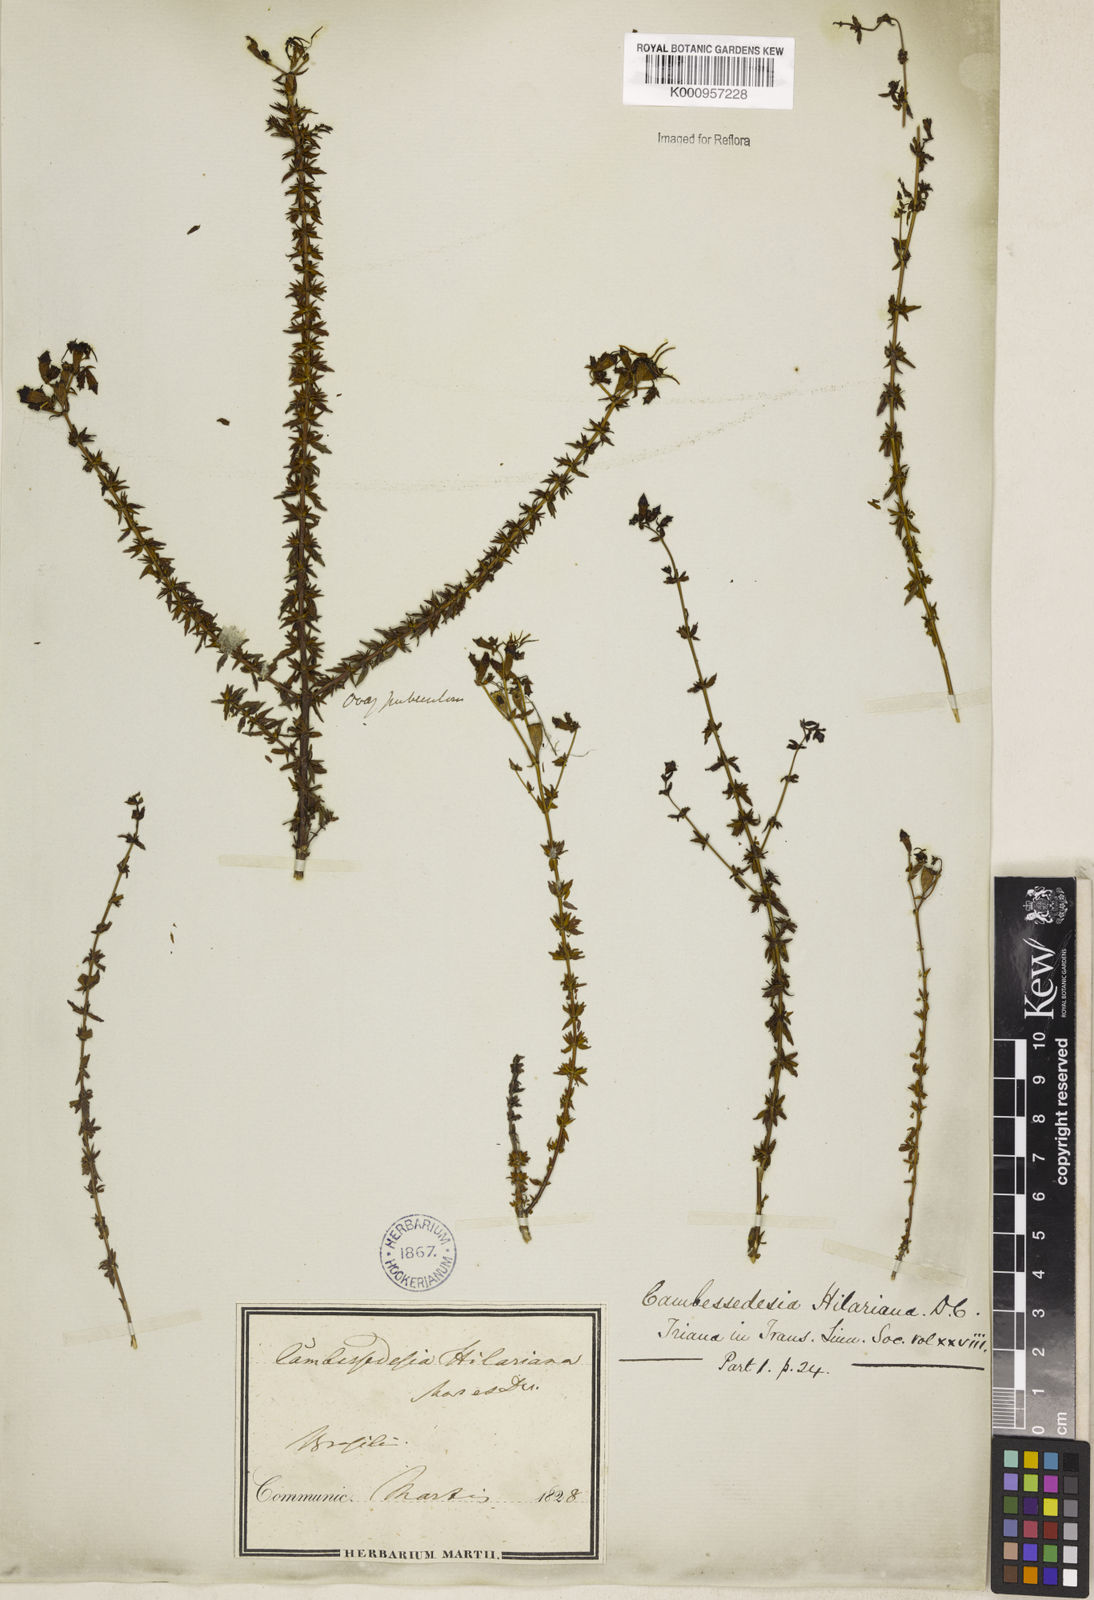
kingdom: Plantae
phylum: Tracheophyta
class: Magnoliopsida
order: Myrtales
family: Melastomataceae
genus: Cambessedesia
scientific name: Cambessedesia hilariana
